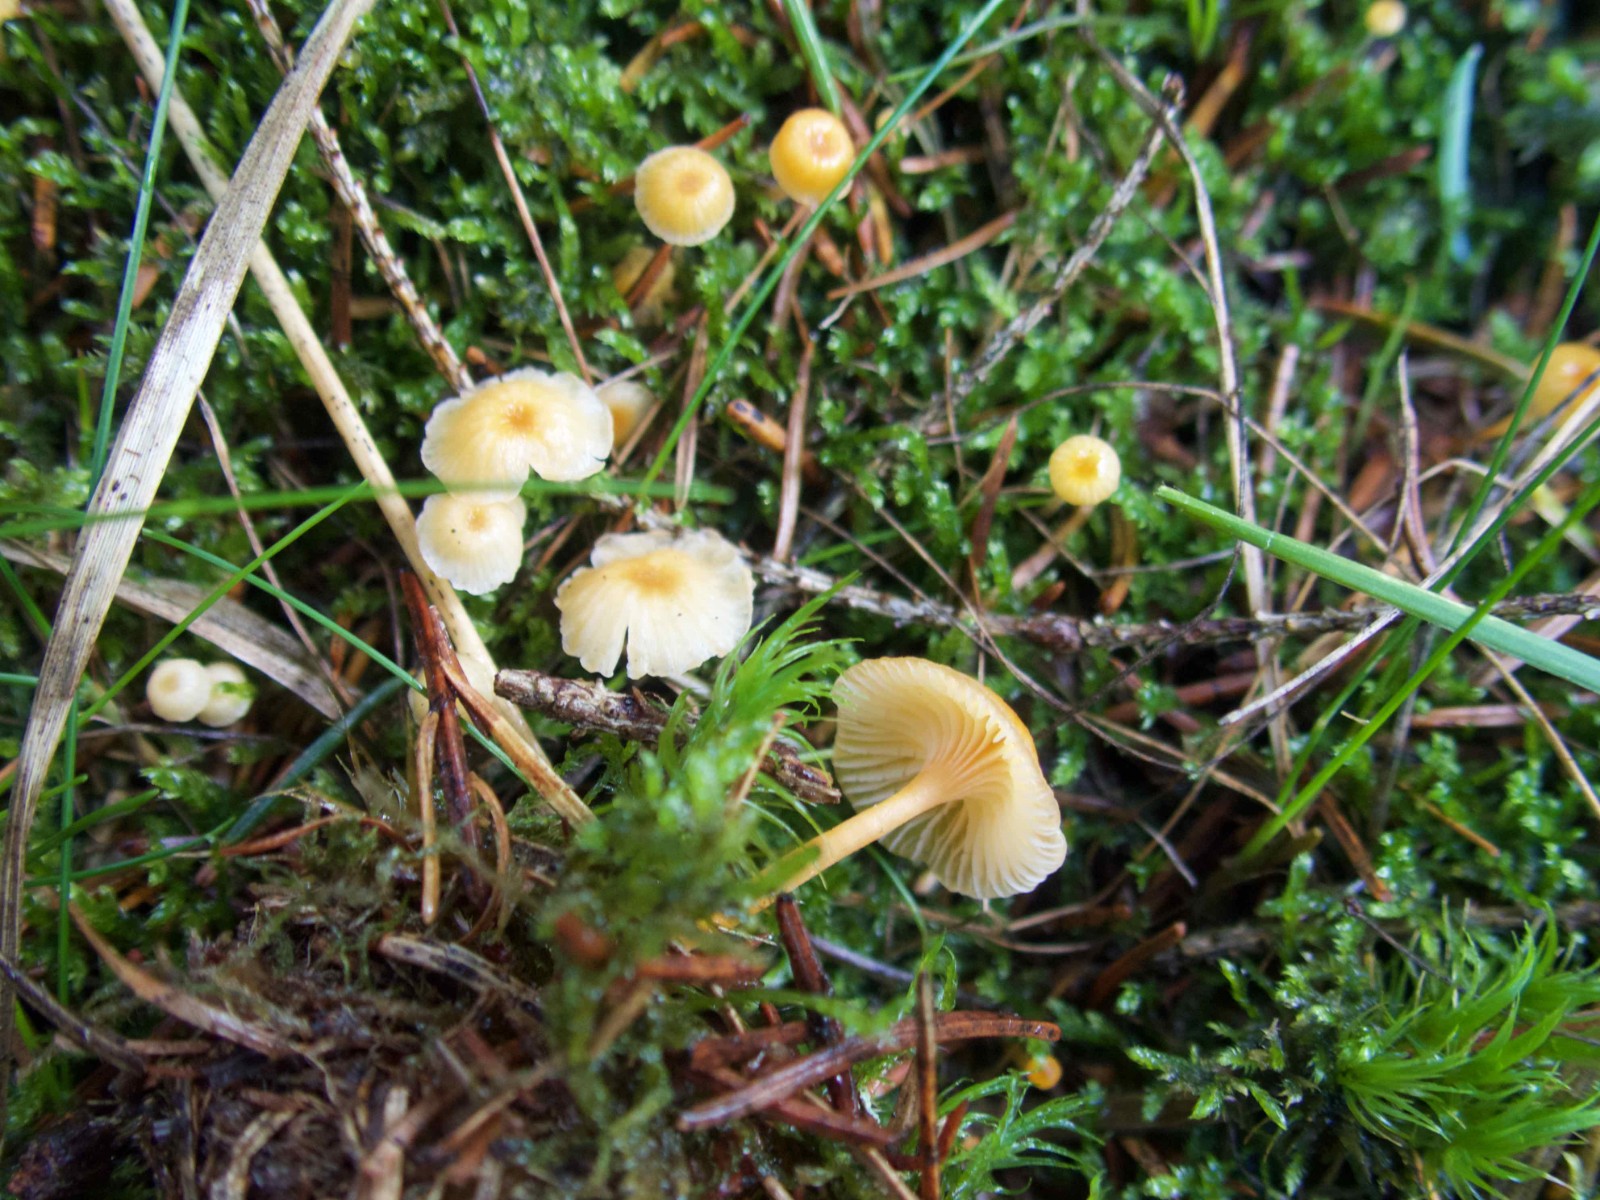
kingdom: Fungi
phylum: Basidiomycota
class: Agaricomycetes
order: Hymenochaetales
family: Rickenellaceae
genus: Rickenella
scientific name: Rickenella fibula
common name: orange mosnavlehat
